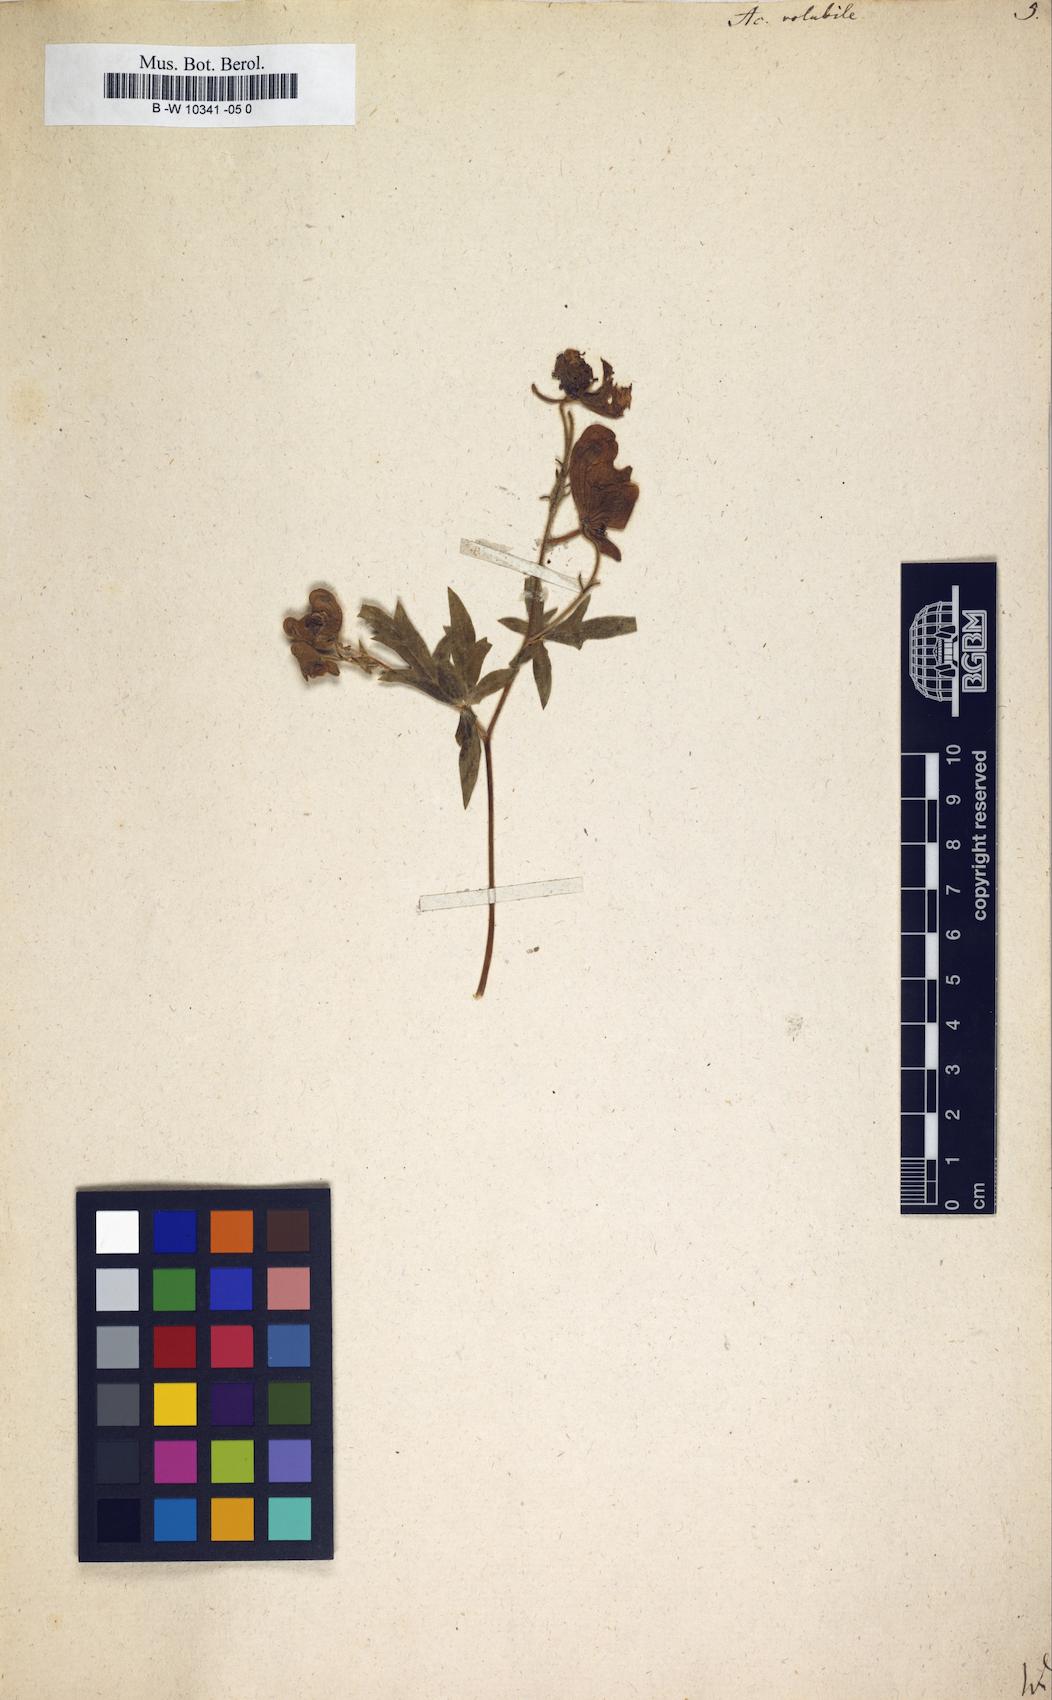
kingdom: Plantae
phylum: Tracheophyta
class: Magnoliopsida
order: Ranunculales
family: Ranunculaceae
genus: Aconitum
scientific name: Aconitum volubile
